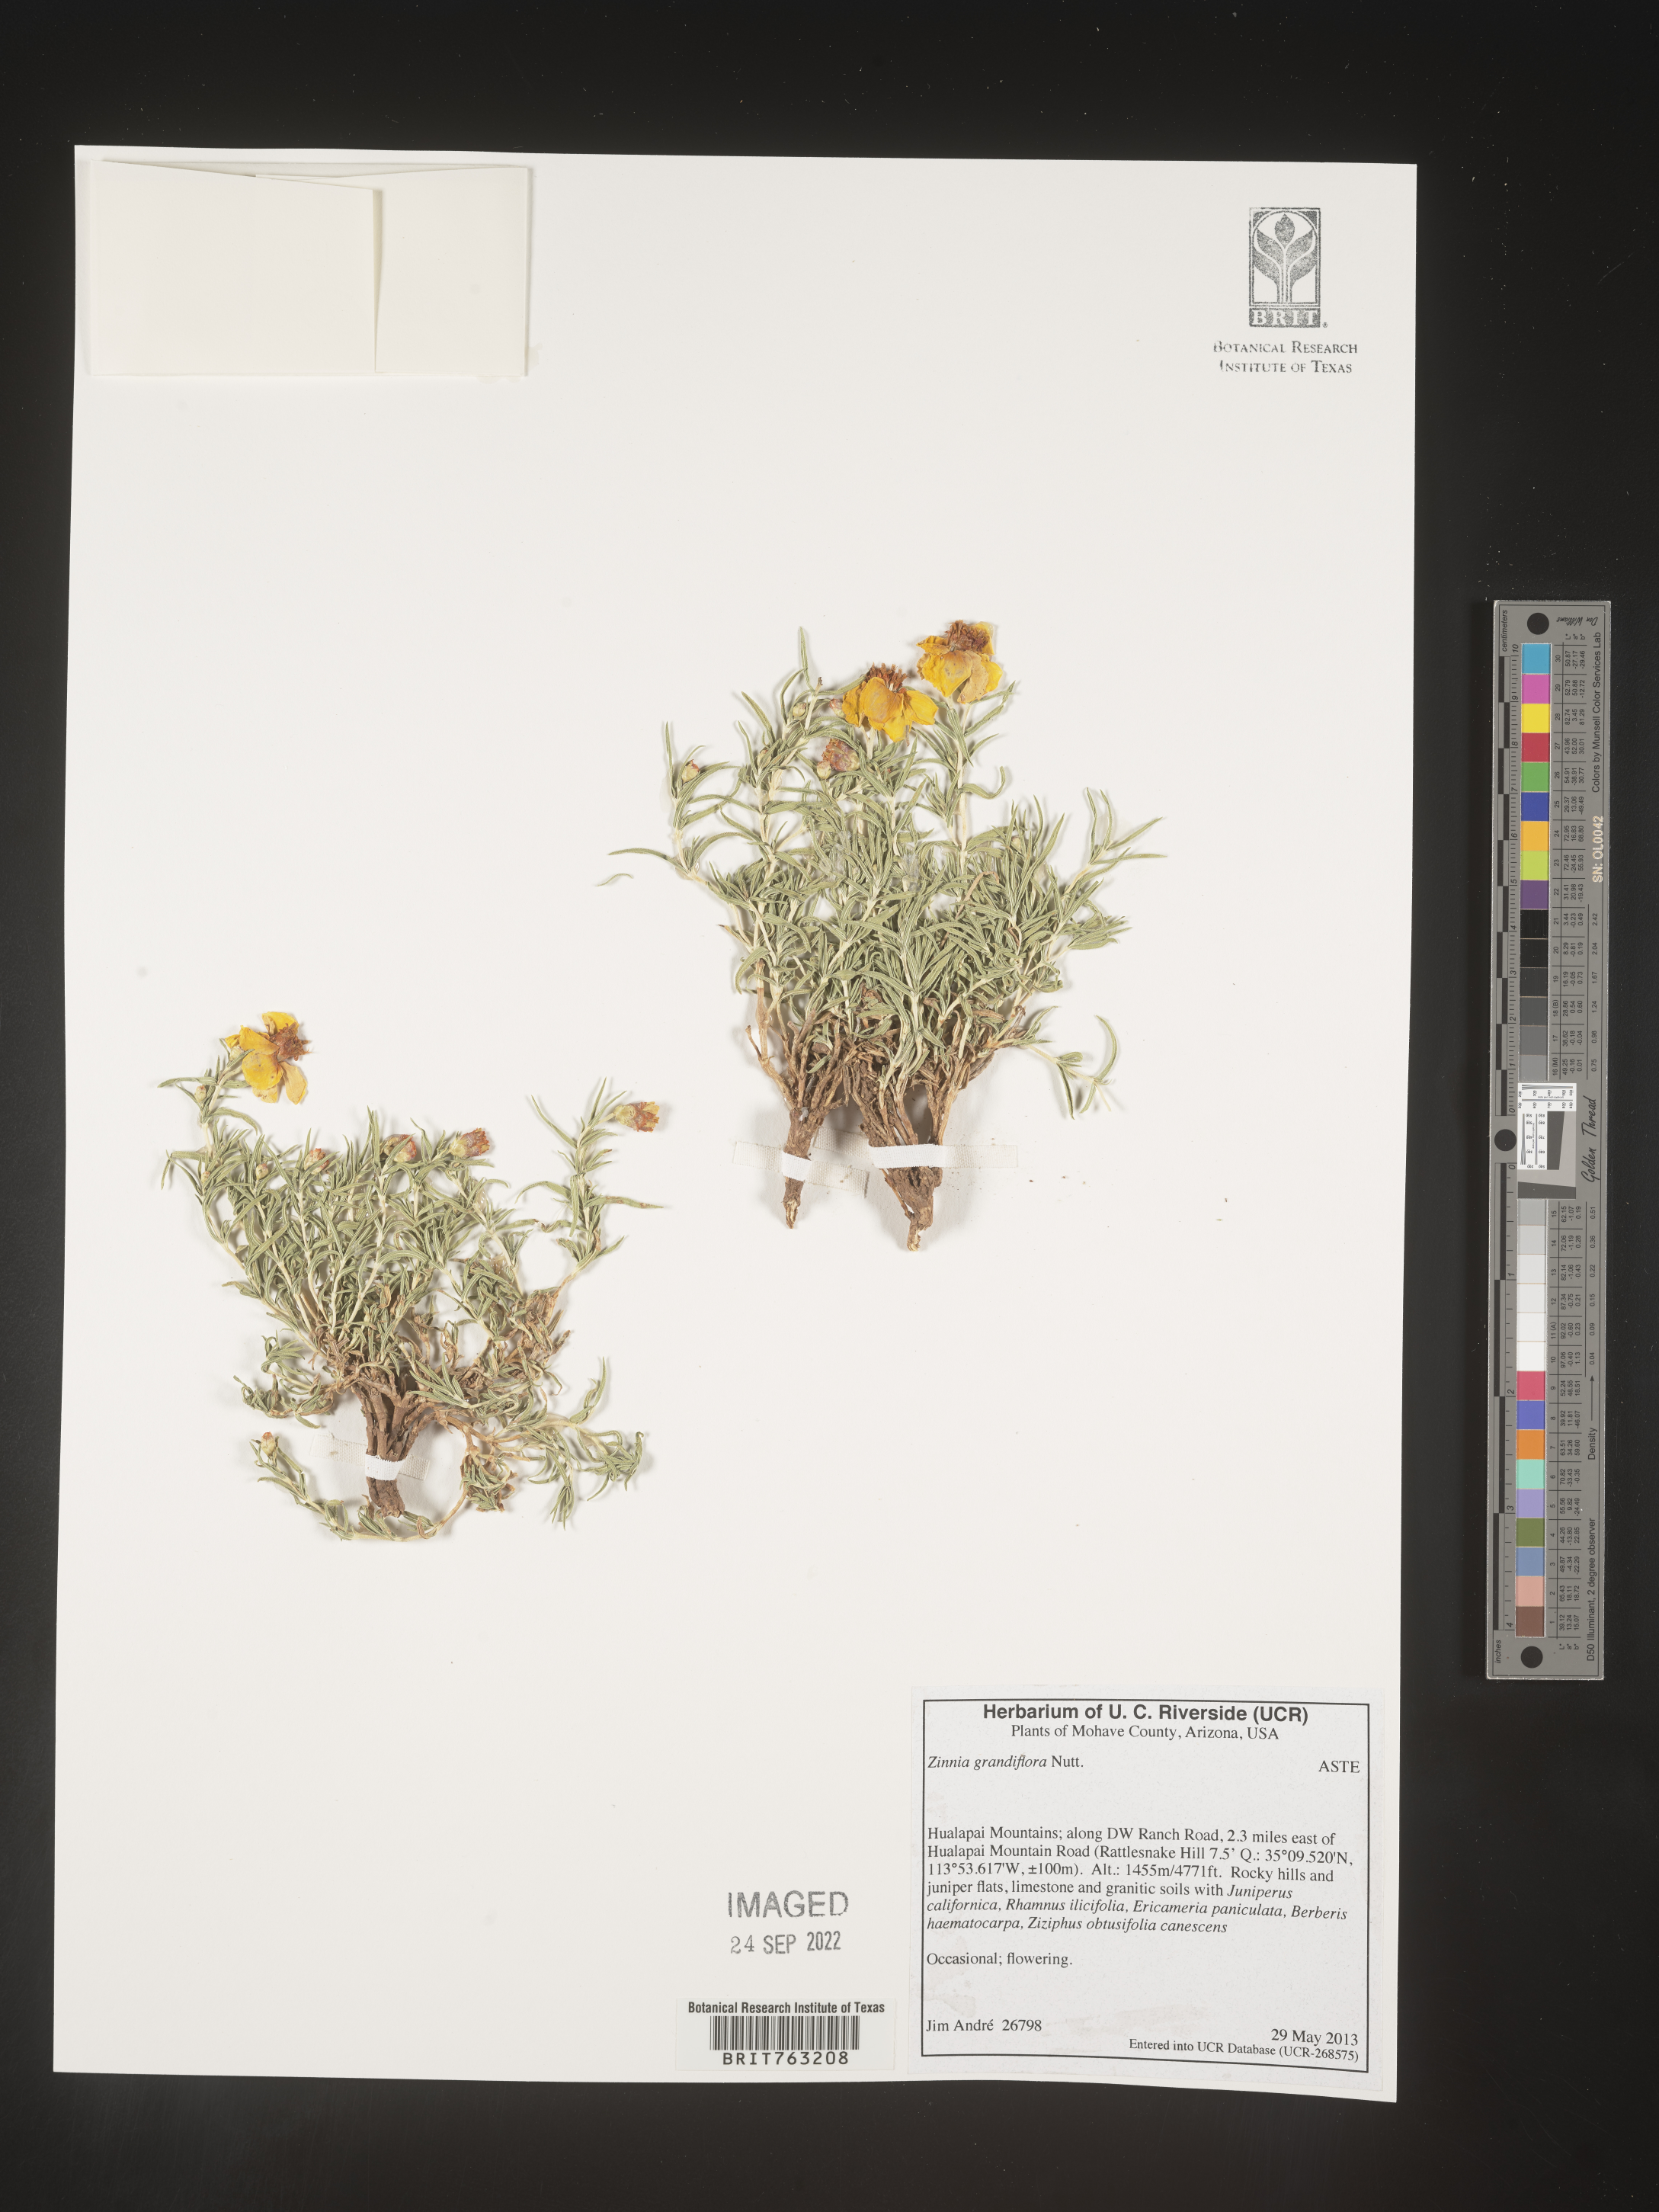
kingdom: Plantae
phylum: Tracheophyta
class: Magnoliopsida
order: Asterales
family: Asteraceae
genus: Zinnia
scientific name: Zinnia
